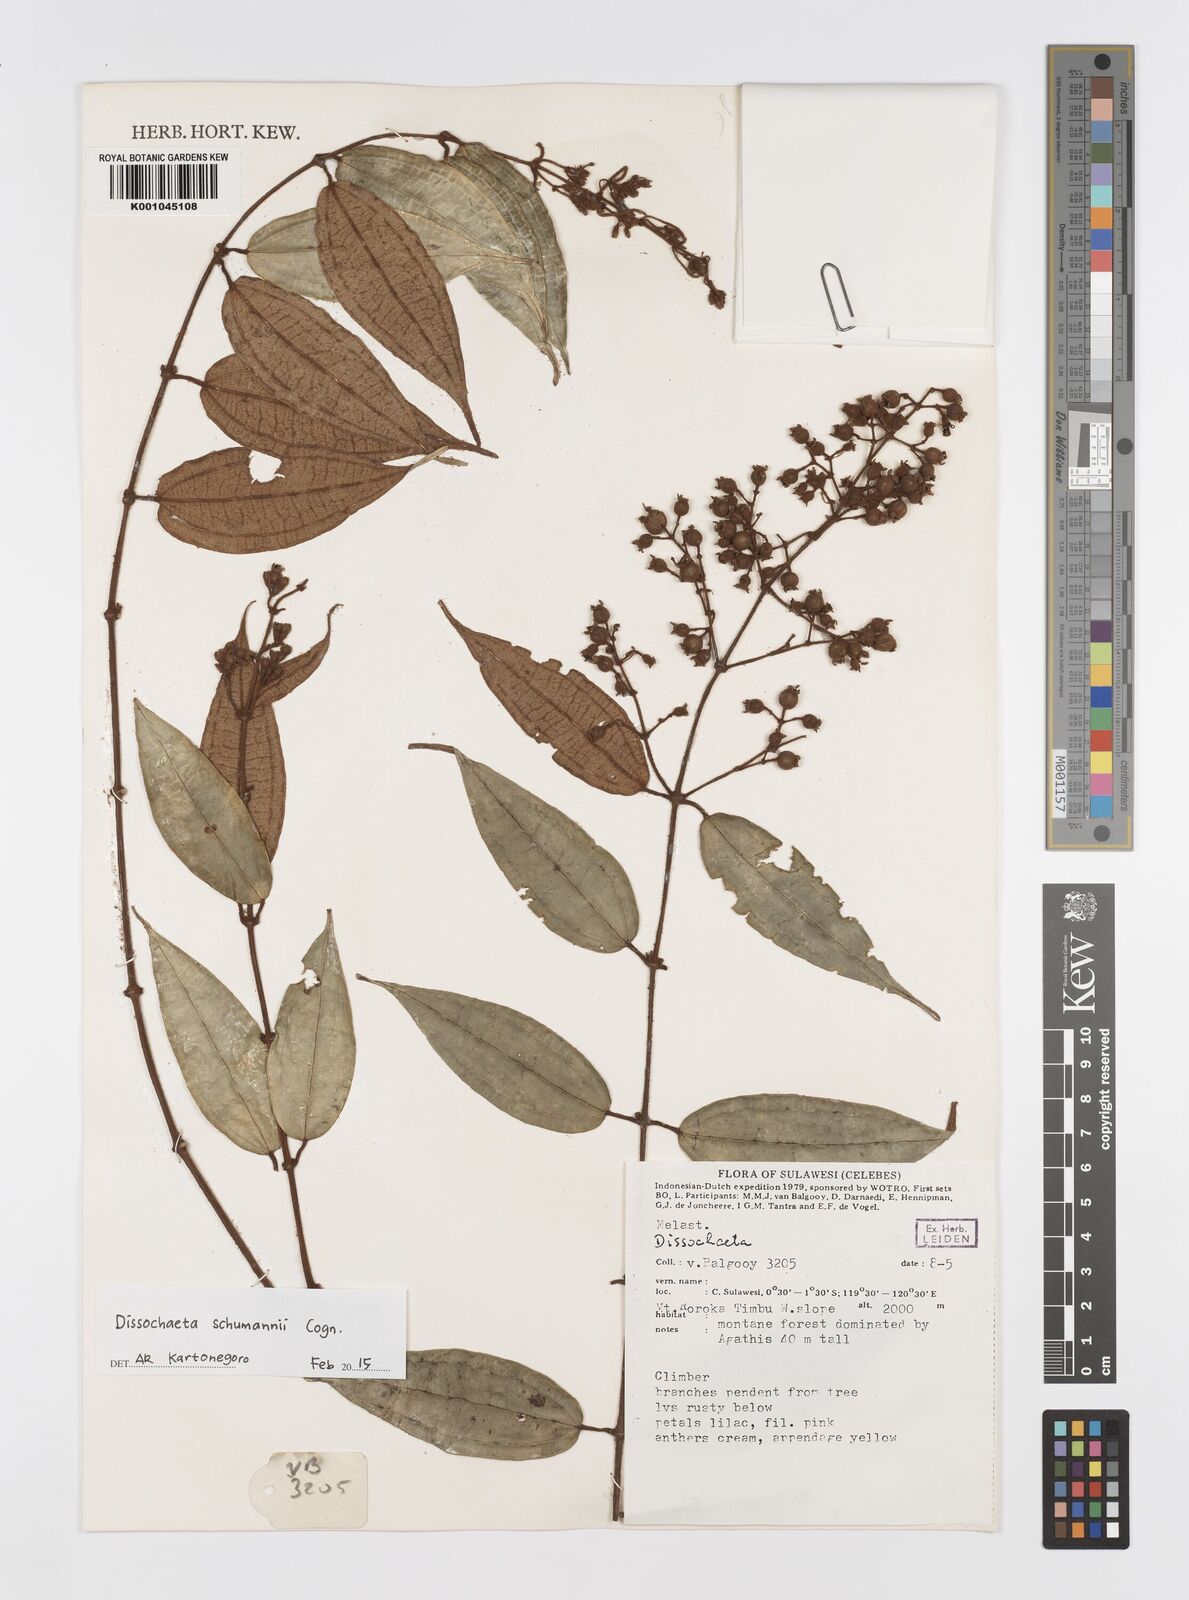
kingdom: Plantae
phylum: Tracheophyta
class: Magnoliopsida
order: Myrtales
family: Melastomataceae
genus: Dissochaeta
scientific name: Dissochaeta schumannii
